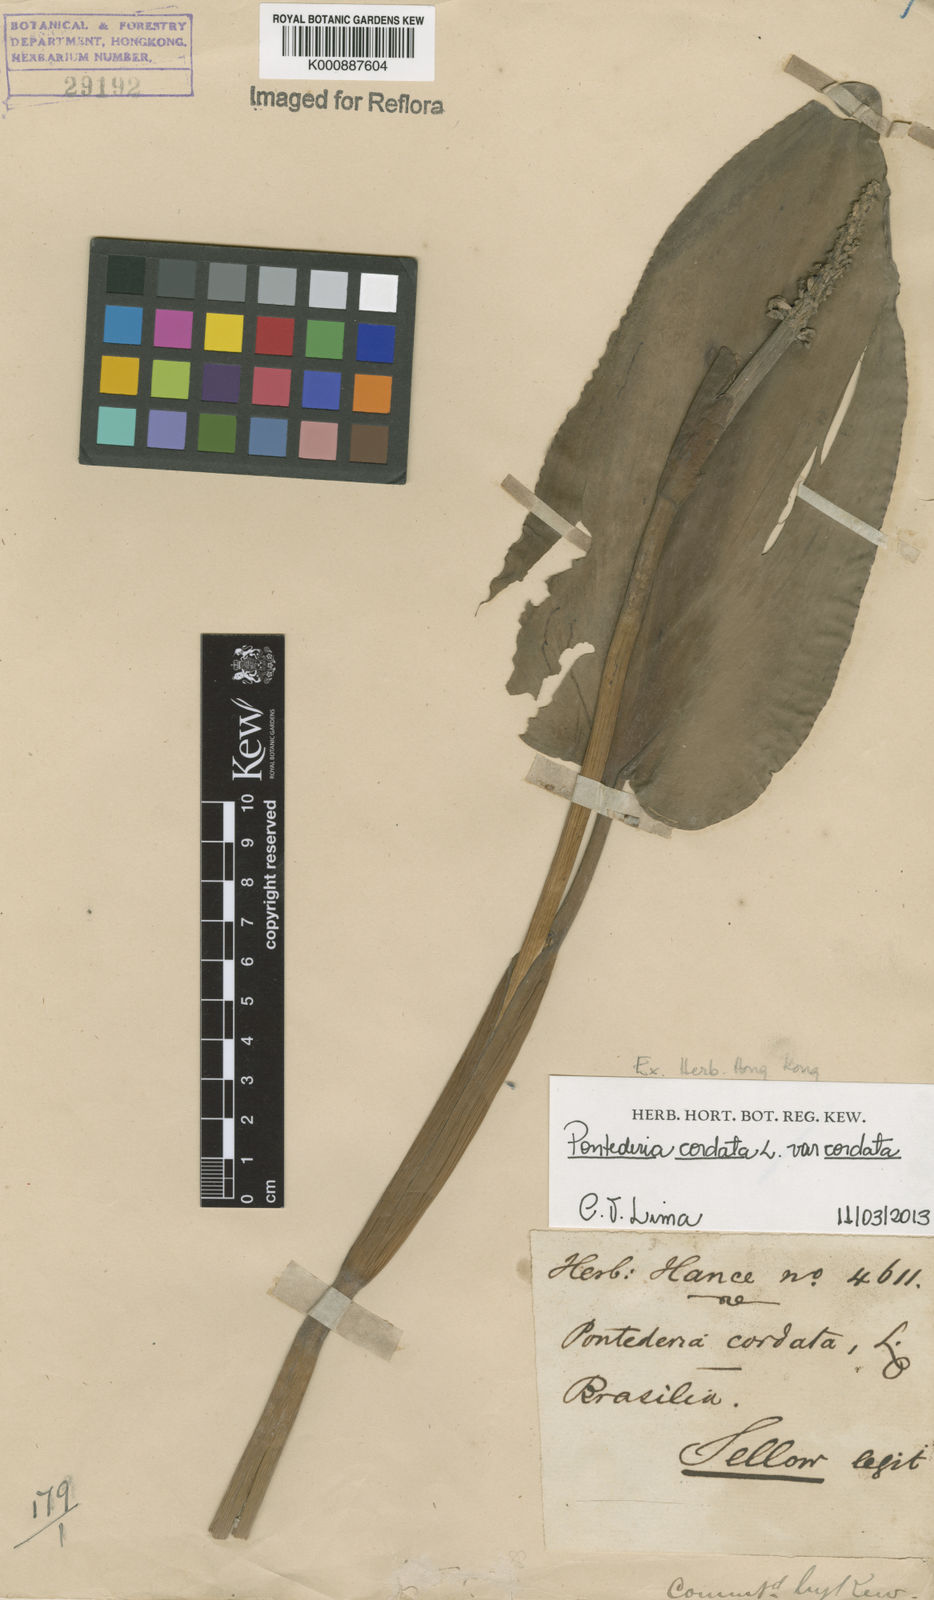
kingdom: Plantae
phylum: Tracheophyta
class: Liliopsida
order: Commelinales
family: Pontederiaceae
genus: Pontederia
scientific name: Pontederia cordata
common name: Pickerelweed
